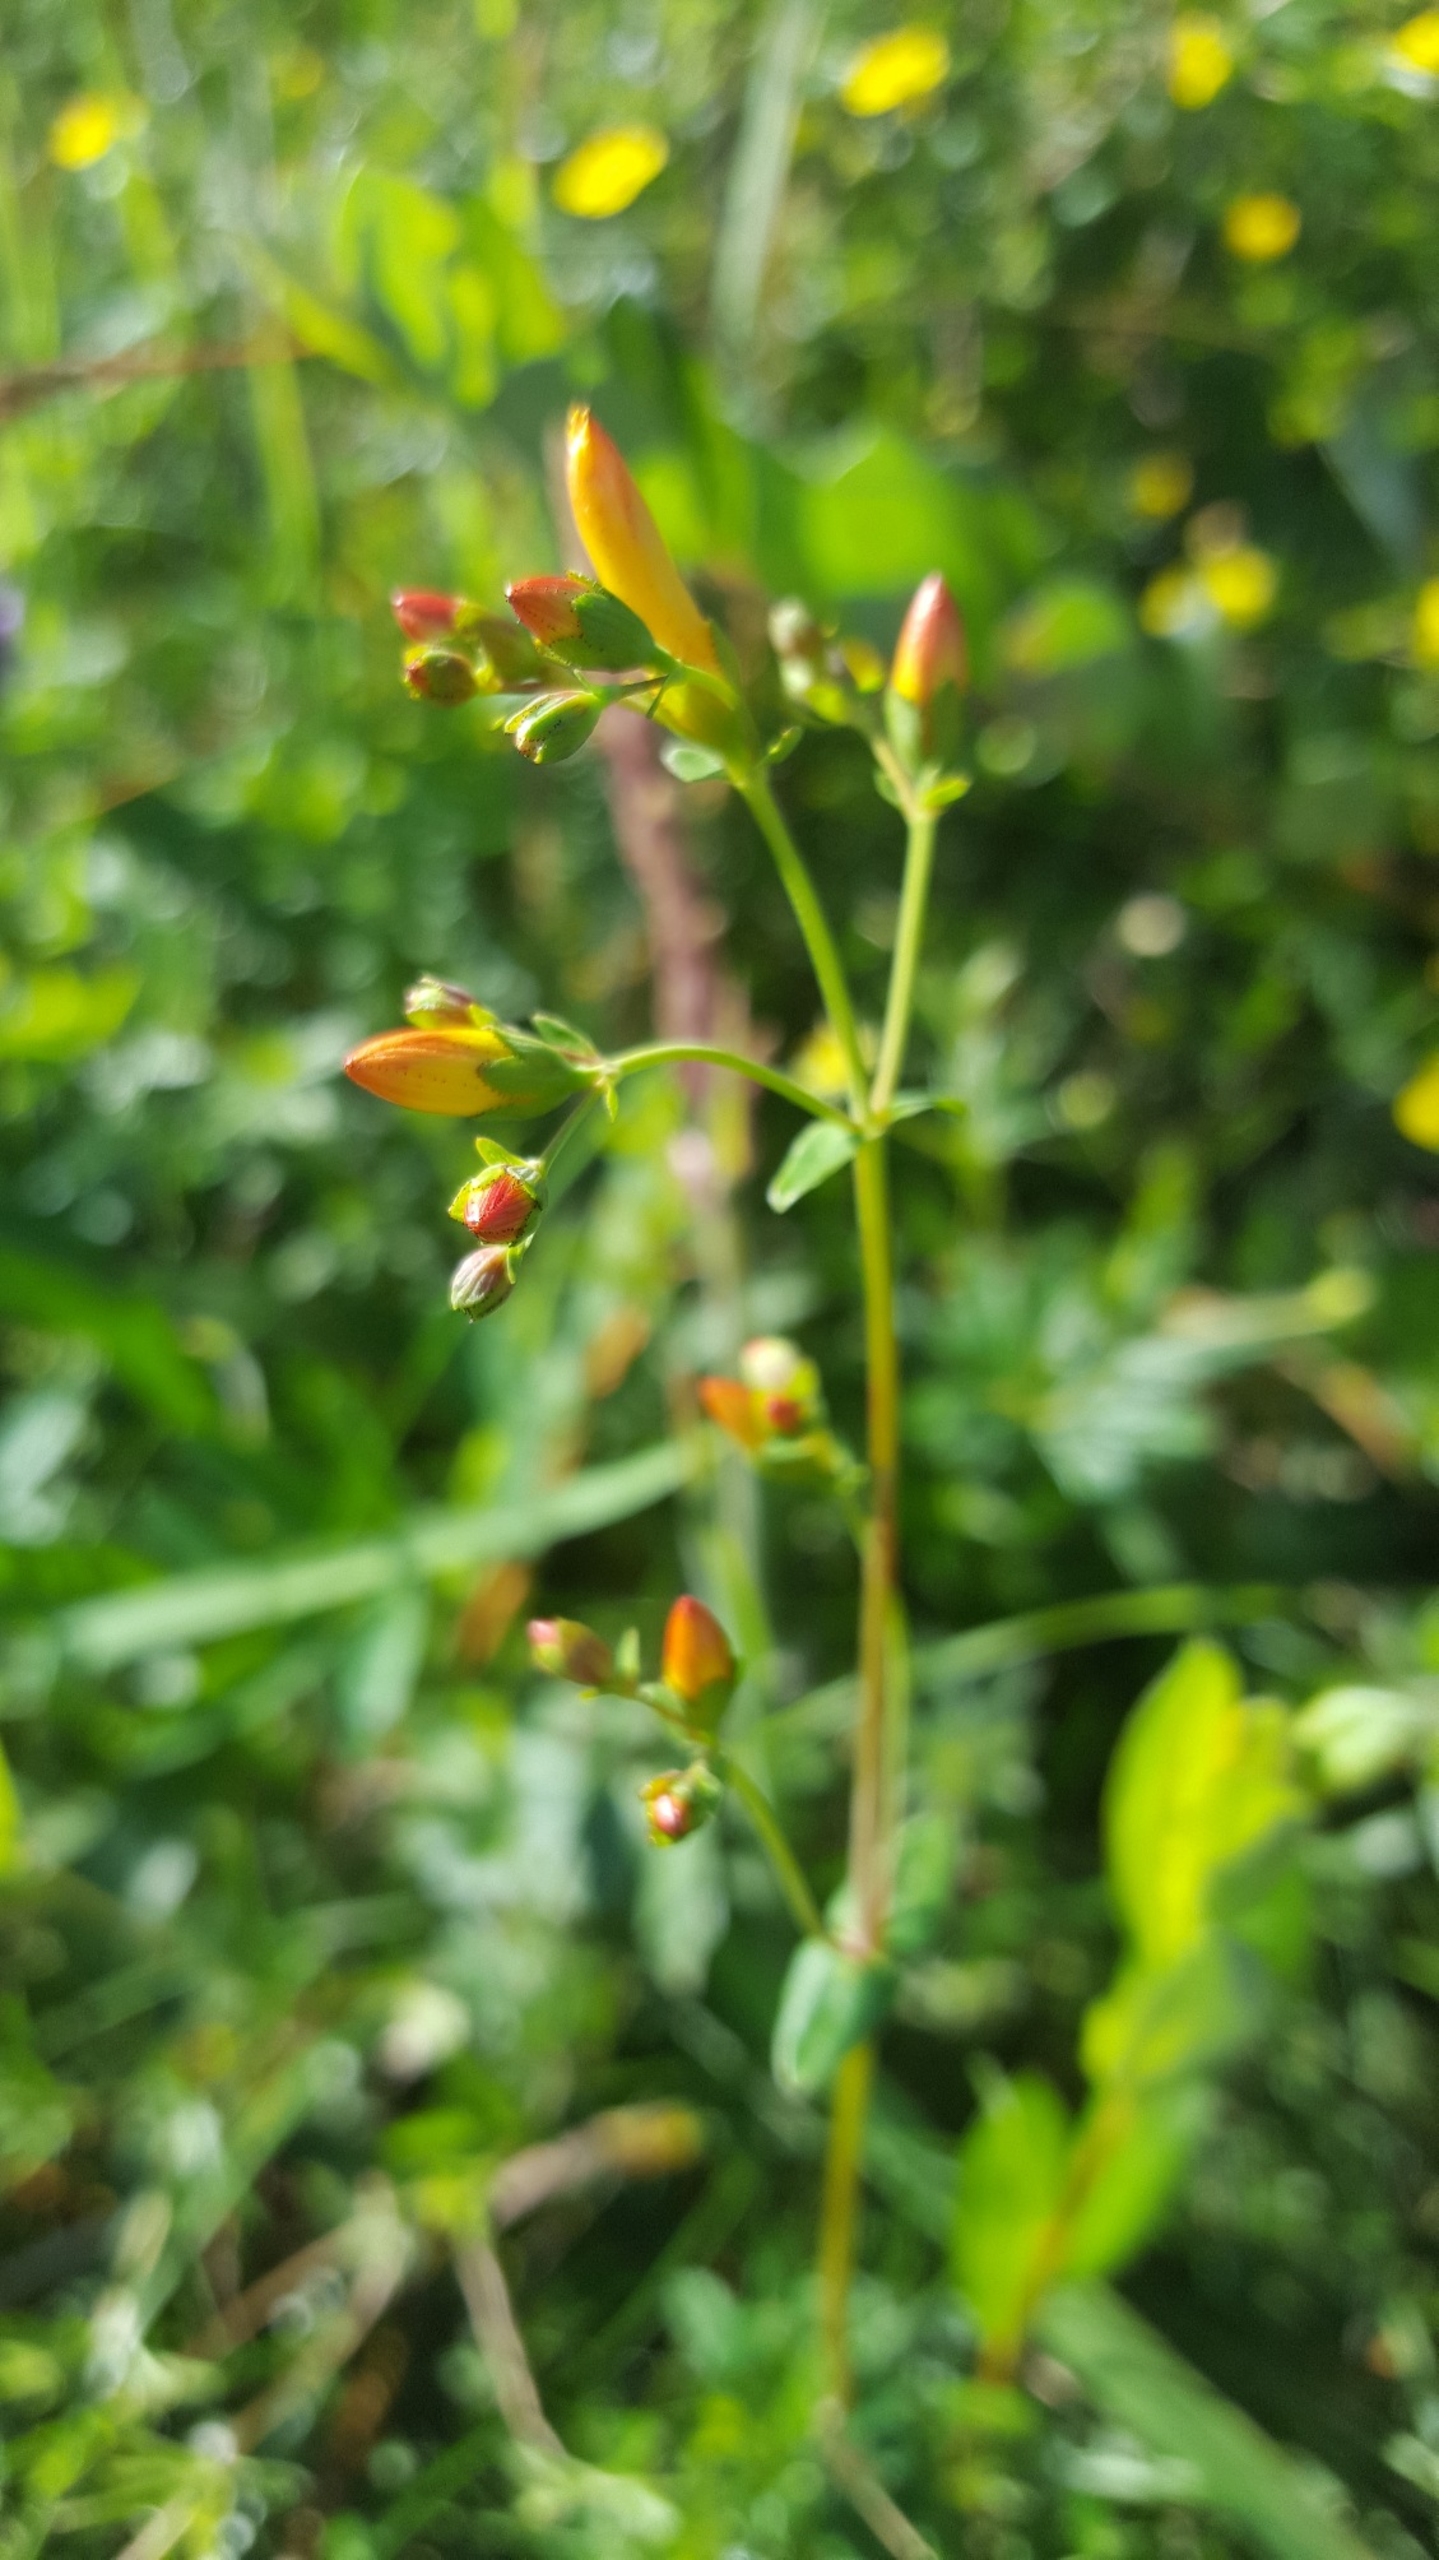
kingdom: Plantae
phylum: Tracheophyta
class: Magnoliopsida
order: Malpighiales
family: Hypericaceae
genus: Hypericum
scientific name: Hypericum pulchrum
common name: Smuk perikon
